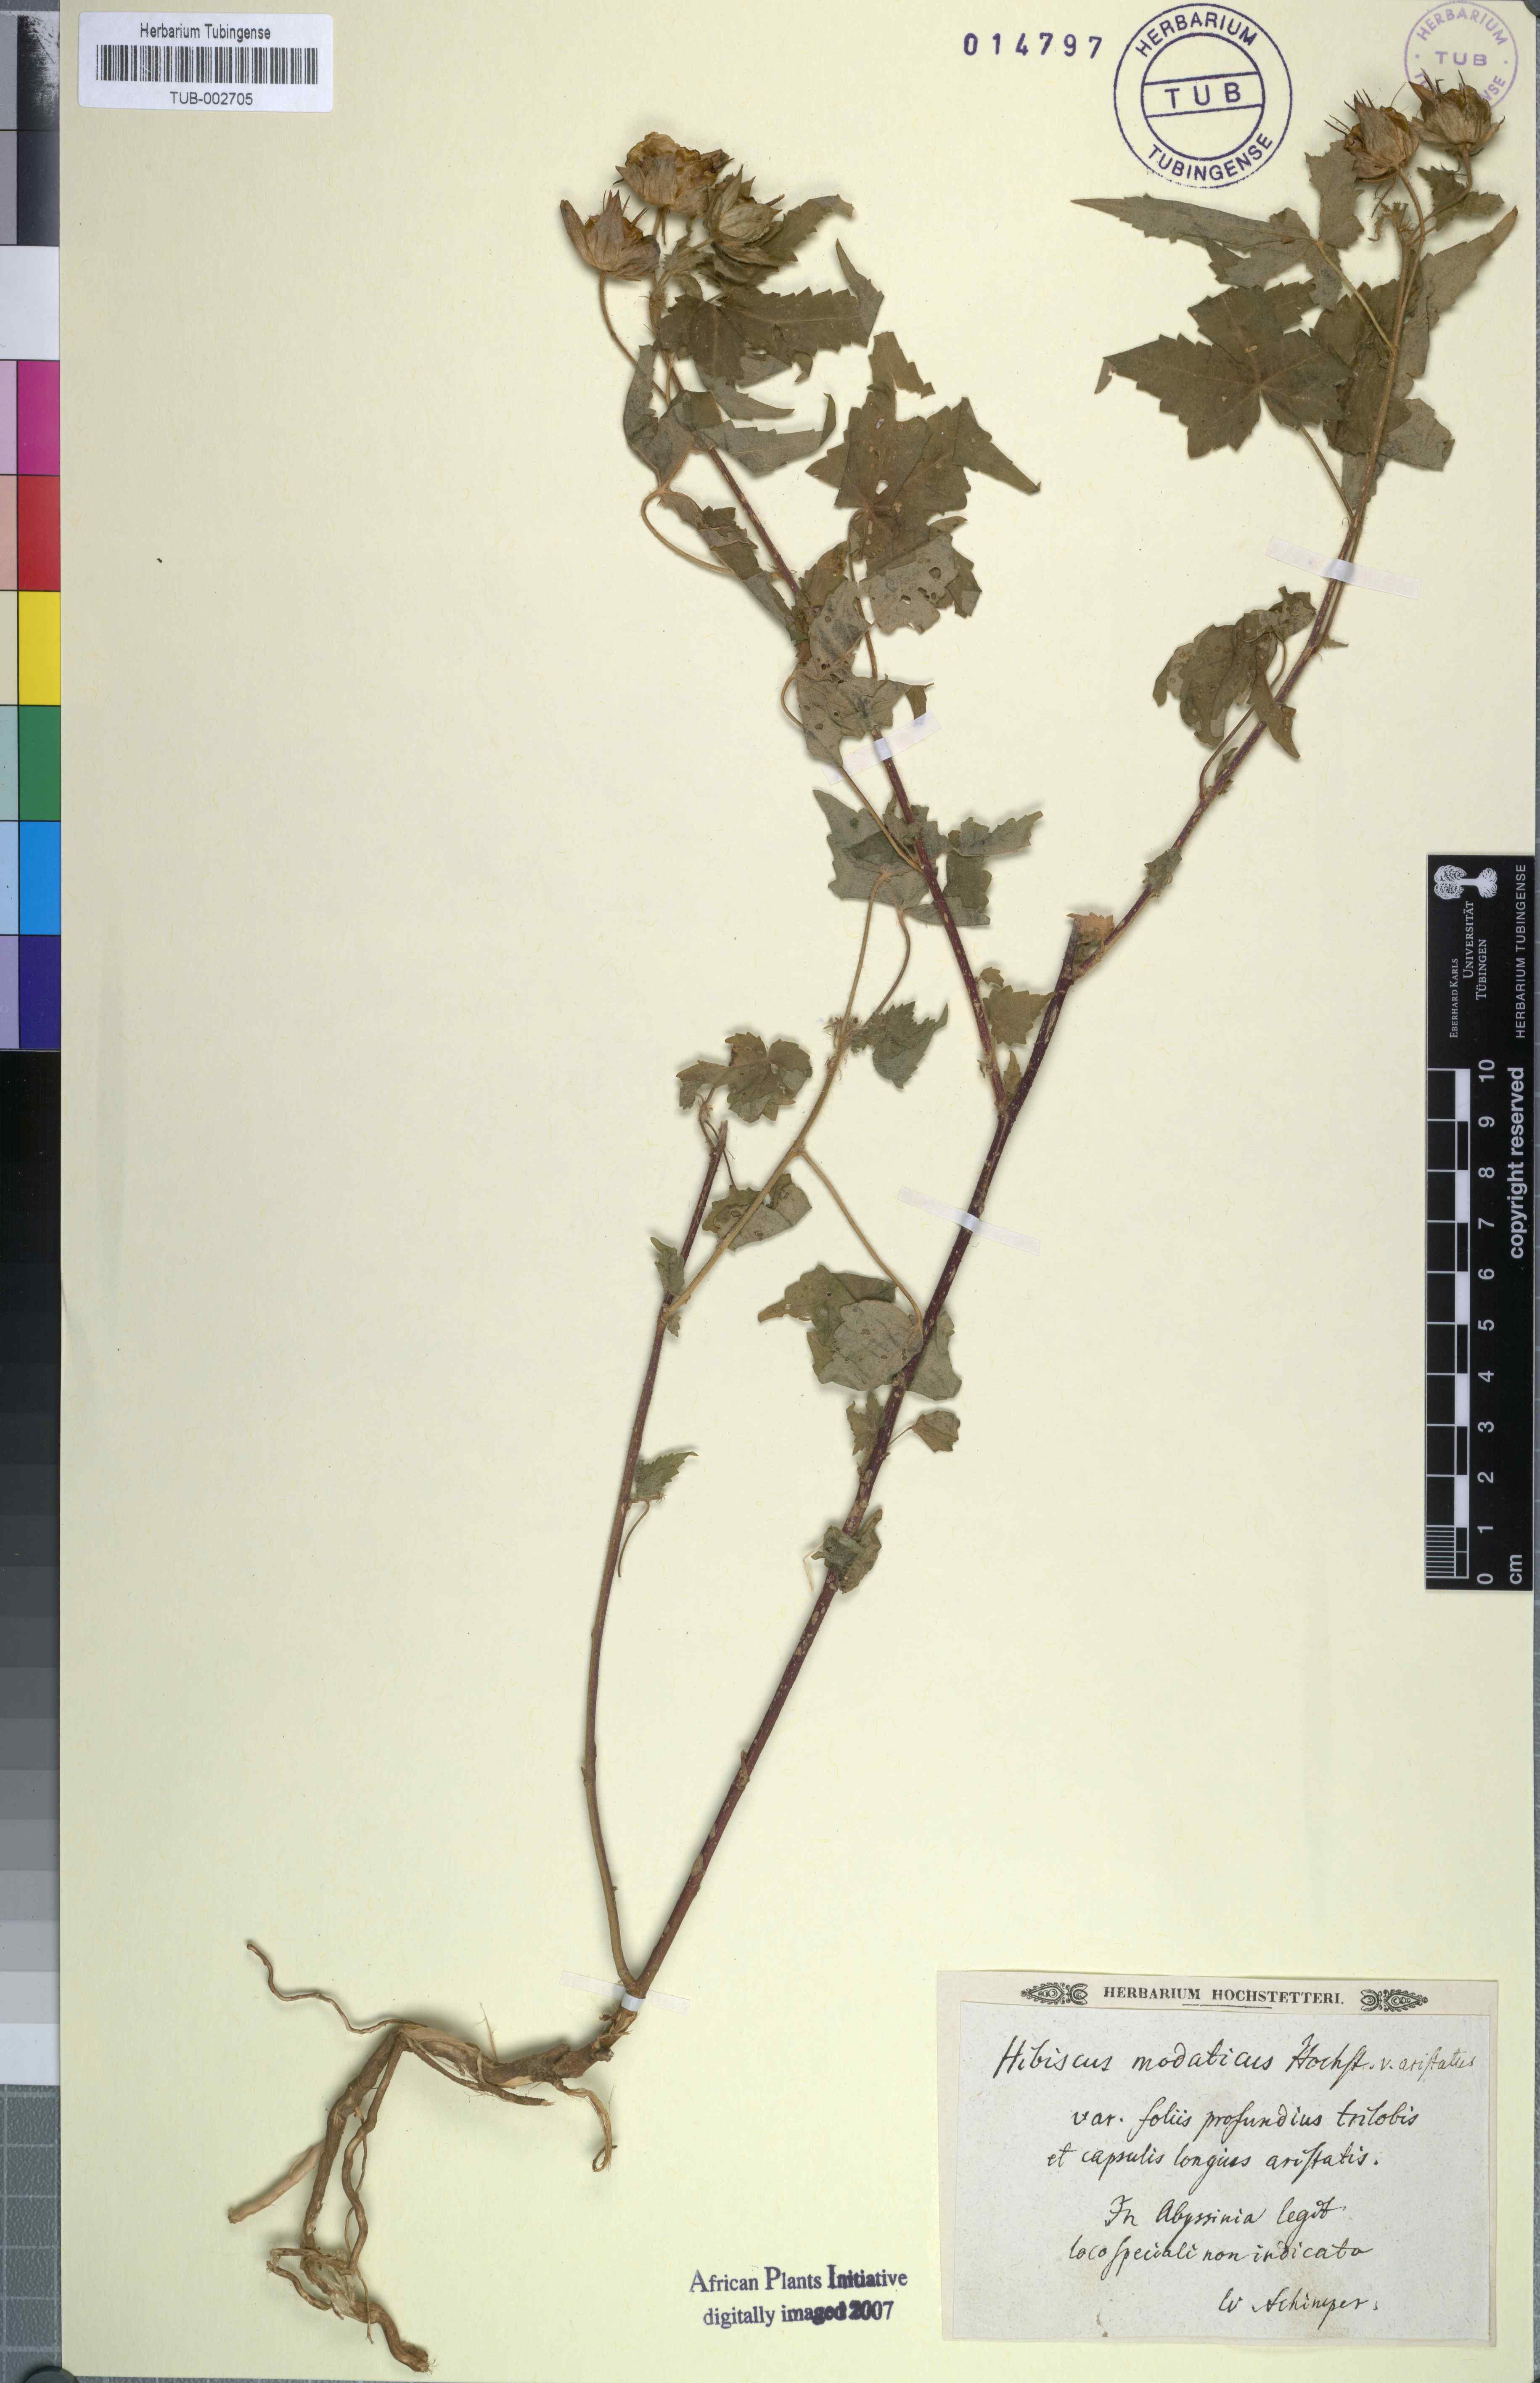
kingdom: Plantae
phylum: Tracheophyta
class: Magnoliopsida
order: Malvales
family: Malvaceae
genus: Hibiscus
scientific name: Hibiscus vitifolius
